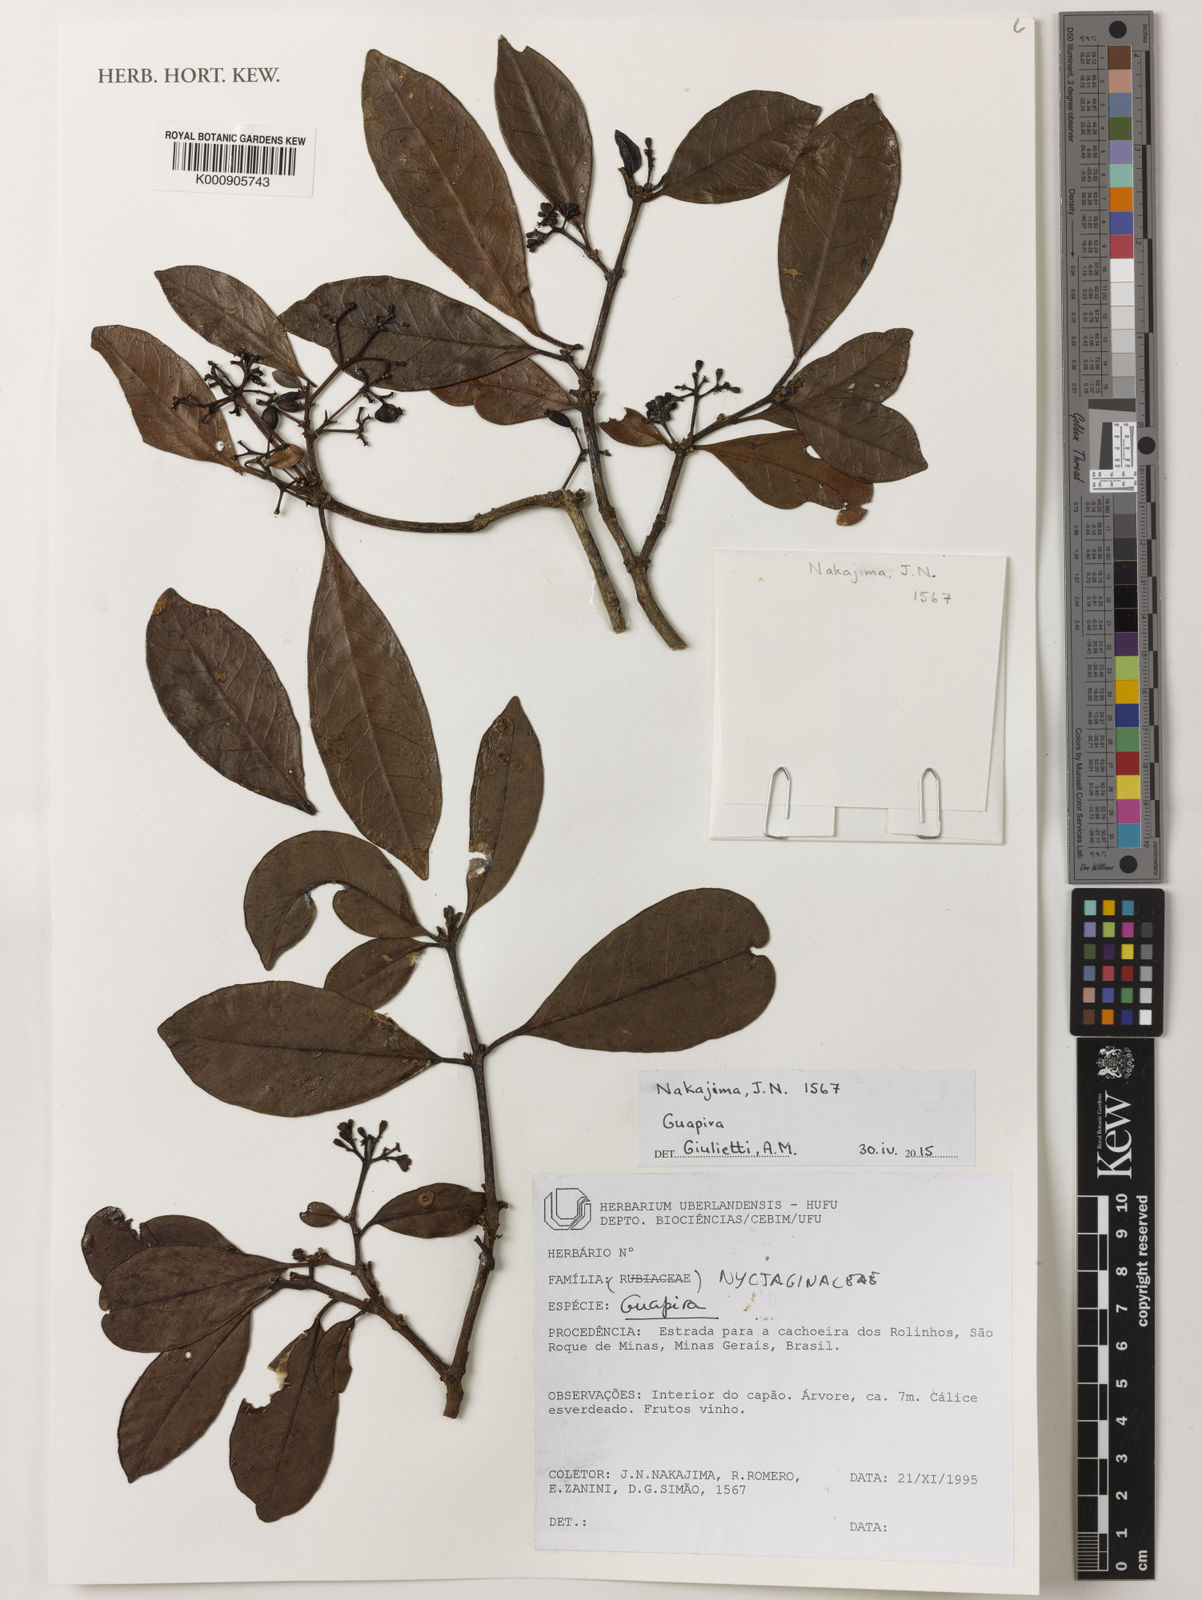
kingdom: Plantae
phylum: Tracheophyta
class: Magnoliopsida
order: Caryophyllales
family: Nyctaginaceae
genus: Guapira
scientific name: Guapira
